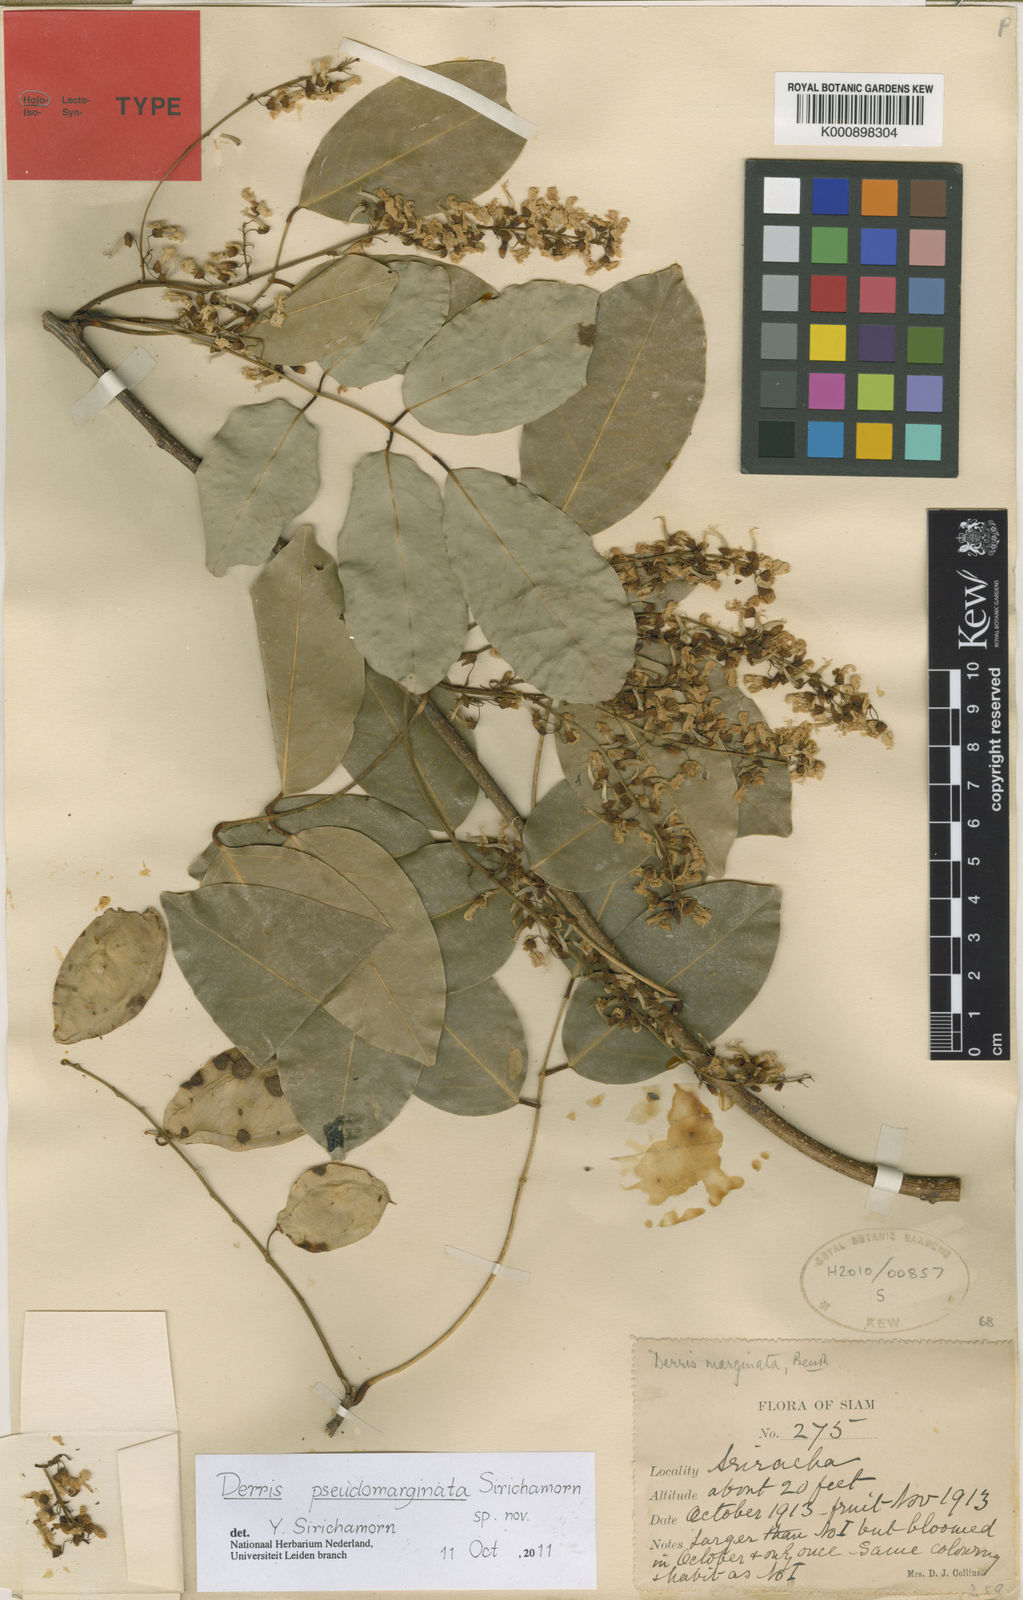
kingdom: Plantae
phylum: Tracheophyta
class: Magnoliopsida
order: Fabales
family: Fabaceae
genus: Derris
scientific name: Derris pseudomarginata
